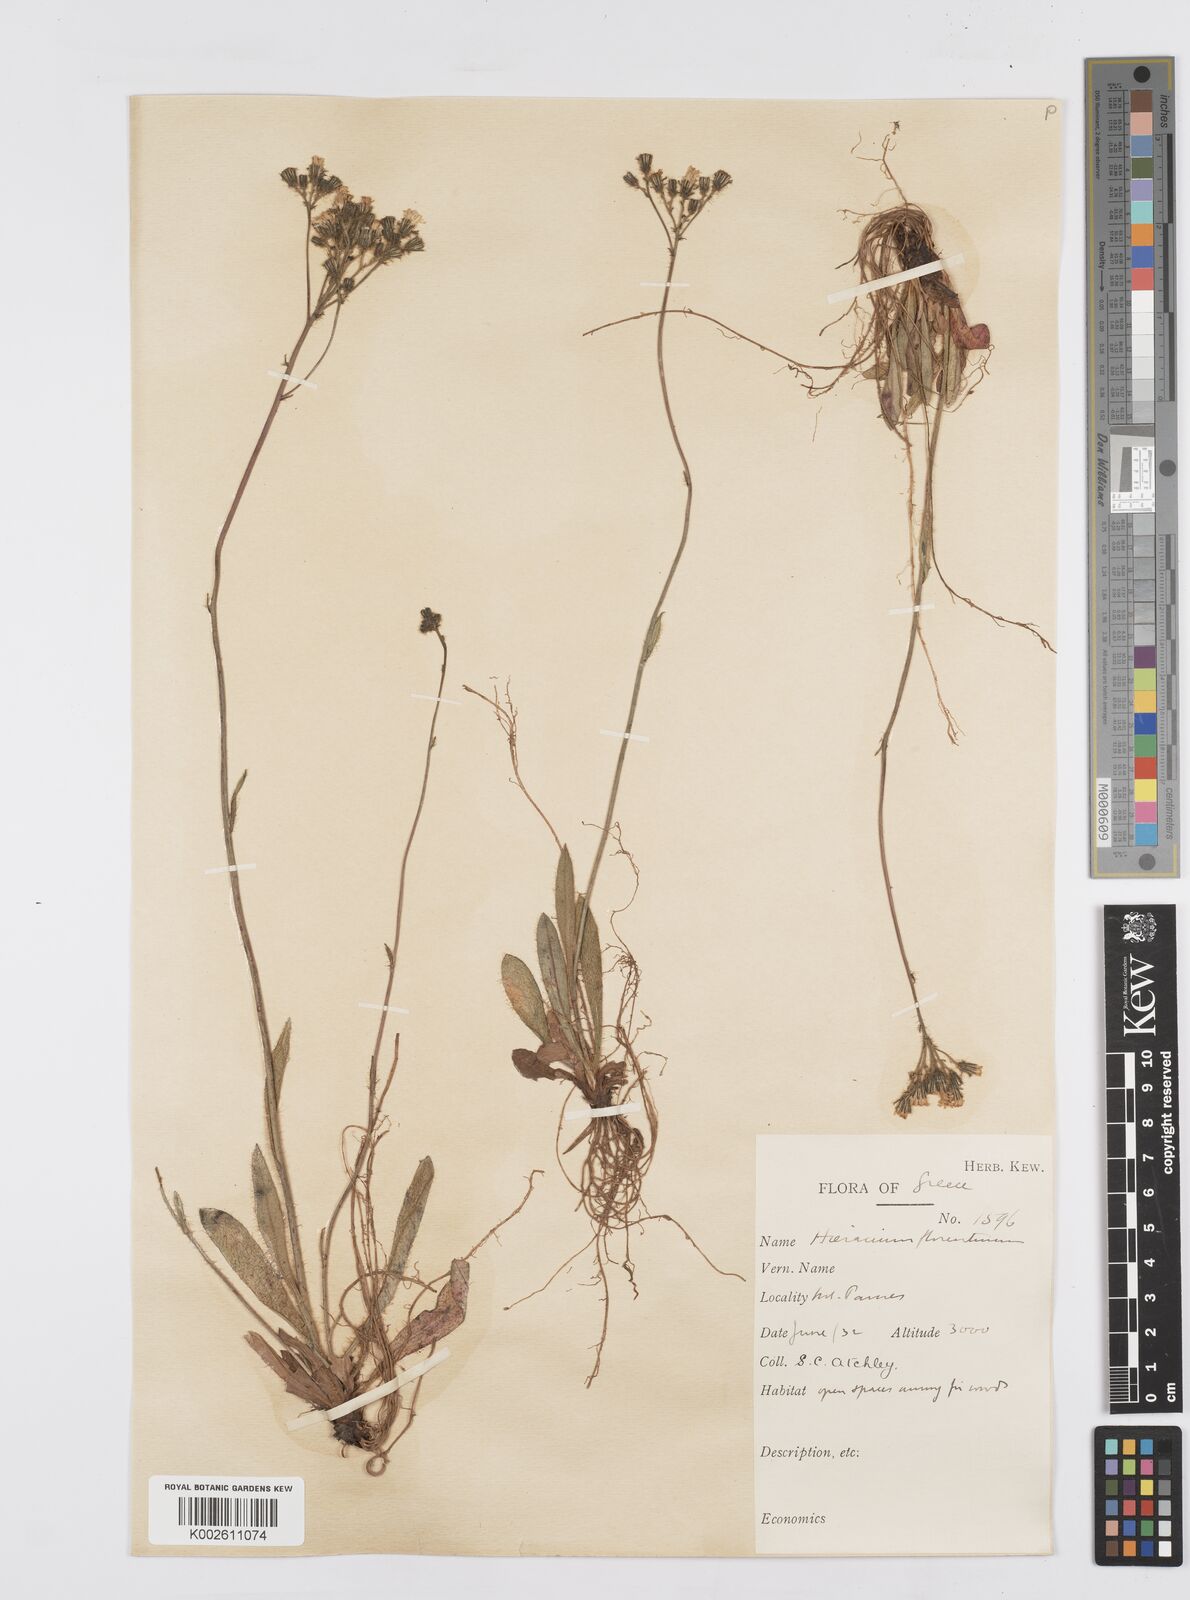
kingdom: Plantae
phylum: Tracheophyta
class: Magnoliopsida
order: Asterales
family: Asteraceae
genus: Pilosella
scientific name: Pilosella piloselloides
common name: Glaucous king-devil
